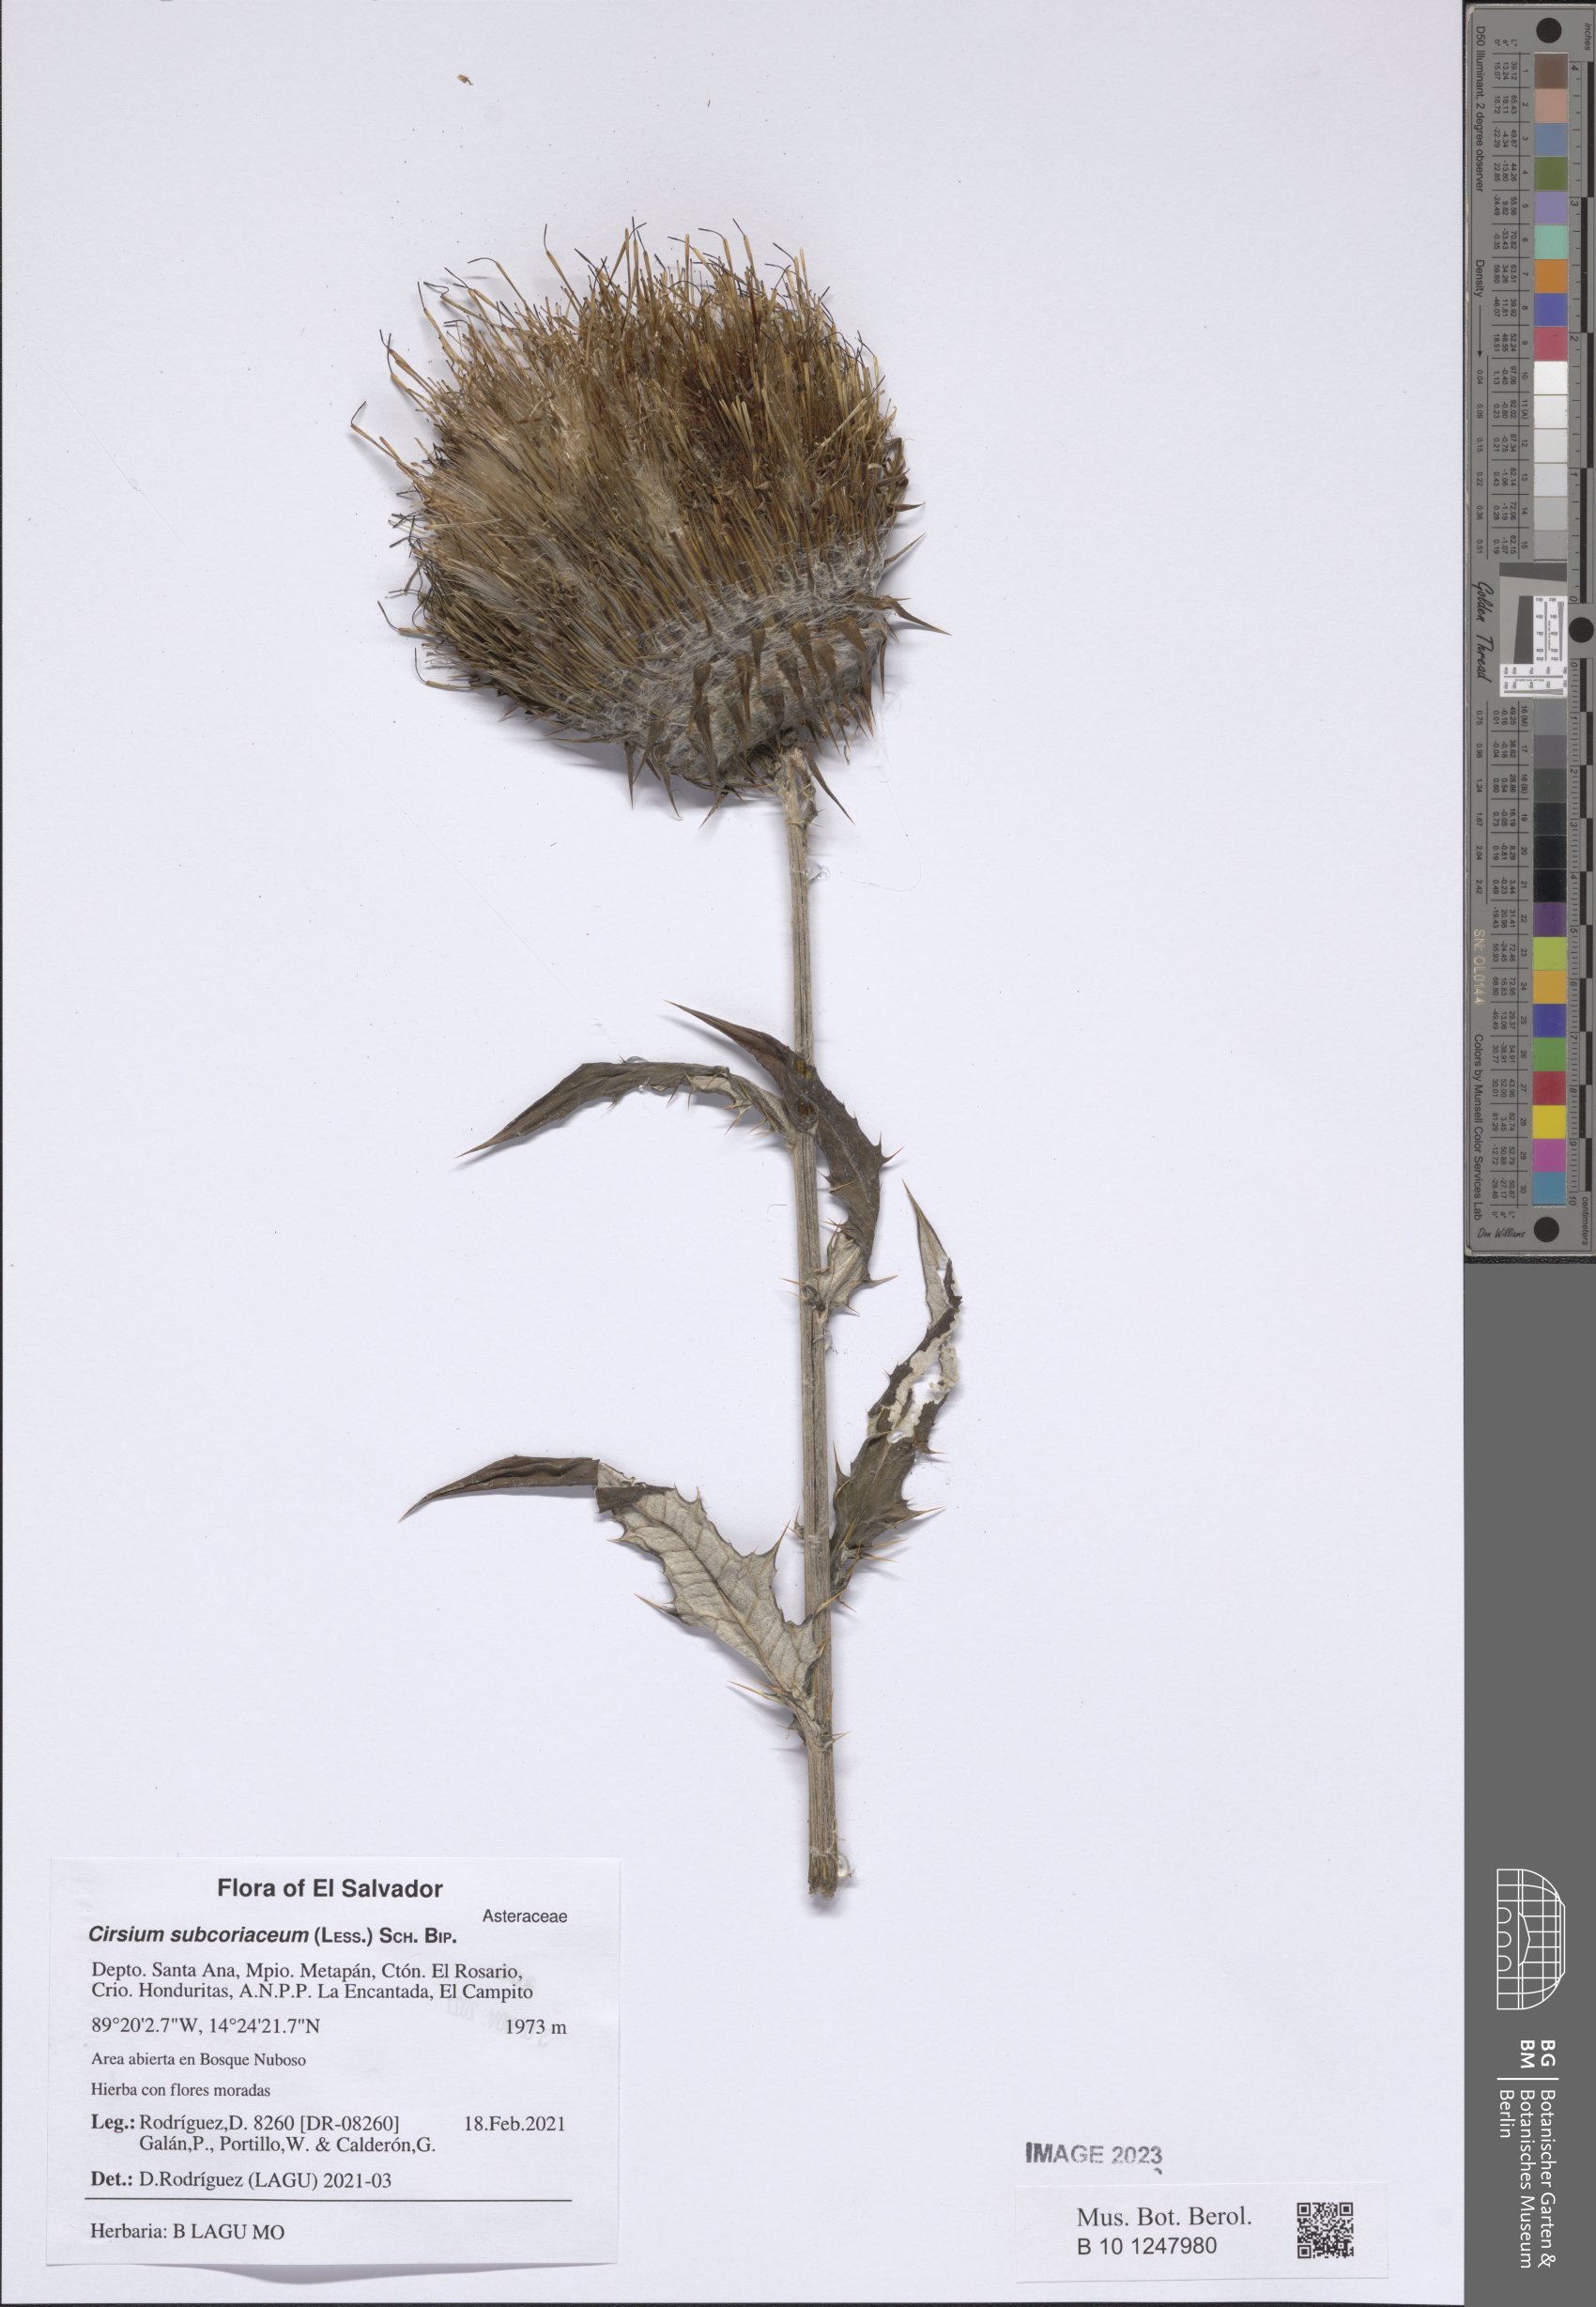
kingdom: Plantae
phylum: Tracheophyta
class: Magnoliopsida
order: Asterales
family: Asteraceae
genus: Cirsium
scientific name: Cirsium subcoriaceum
